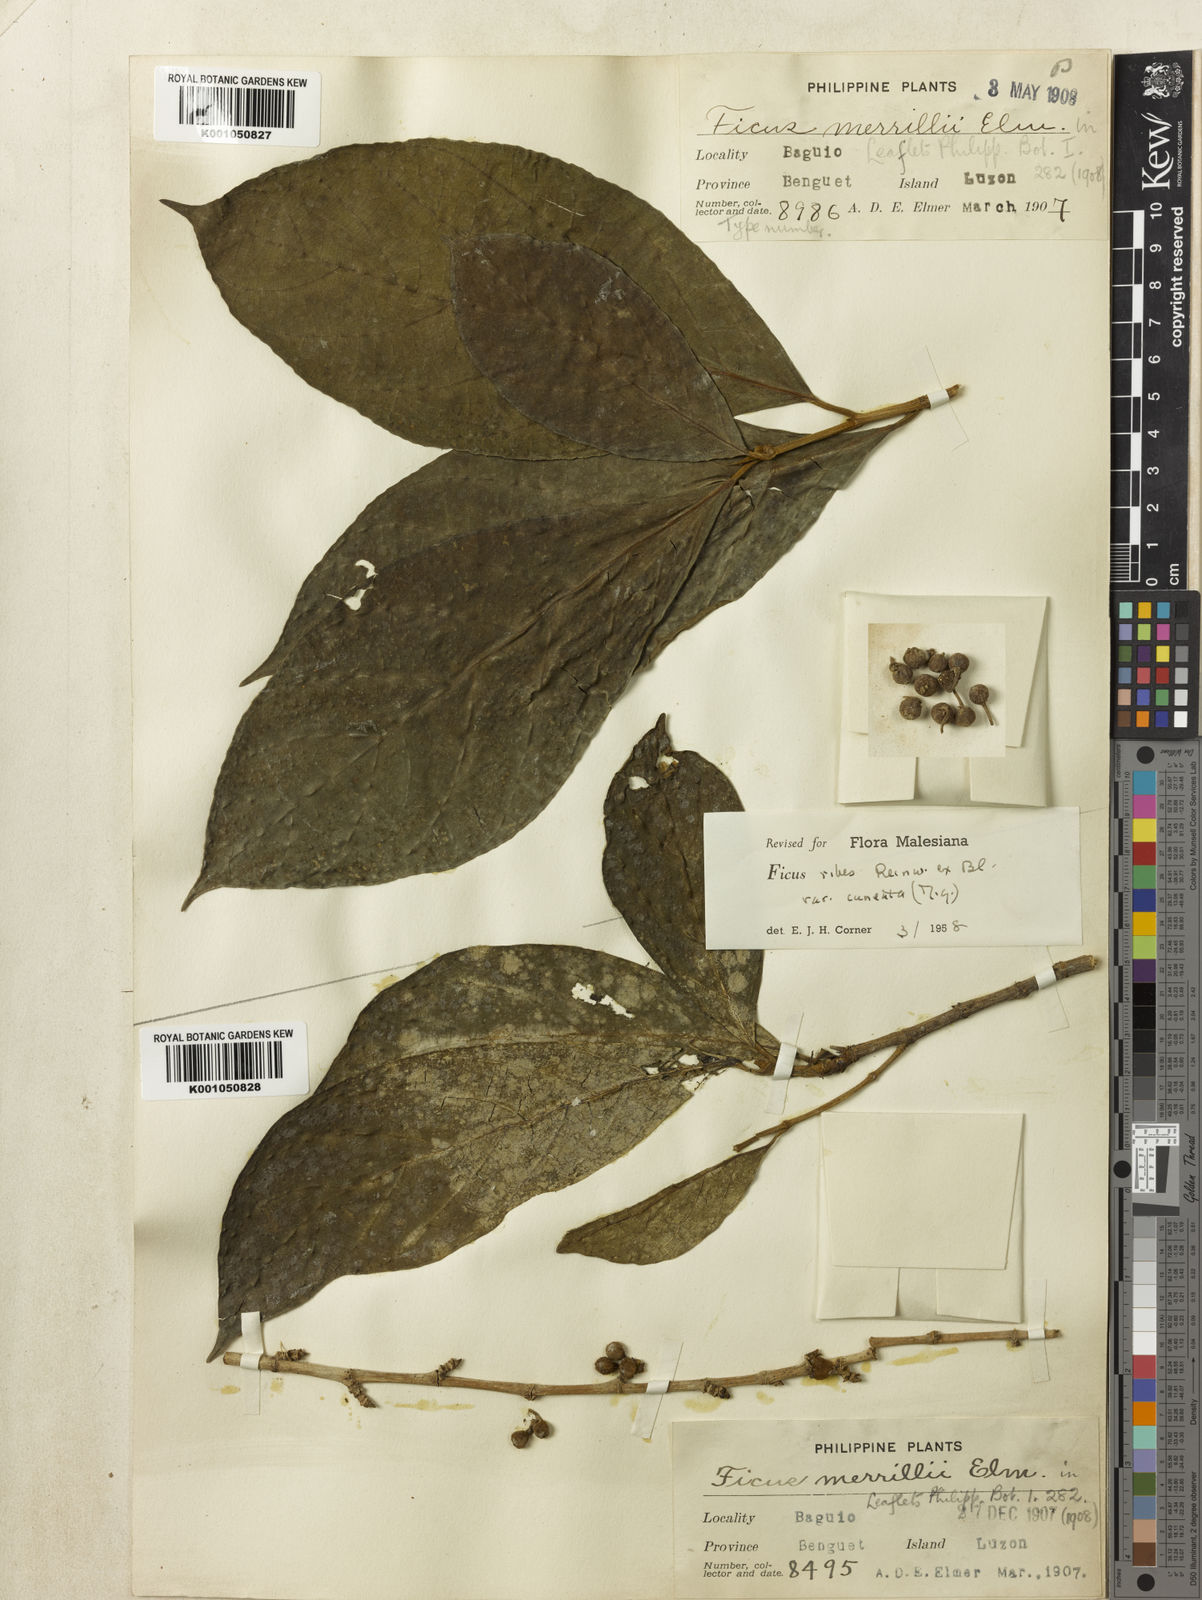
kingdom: Plantae
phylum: Tracheophyta
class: Magnoliopsida
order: Rosales
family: Moraceae
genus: Ficus
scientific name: Ficus
